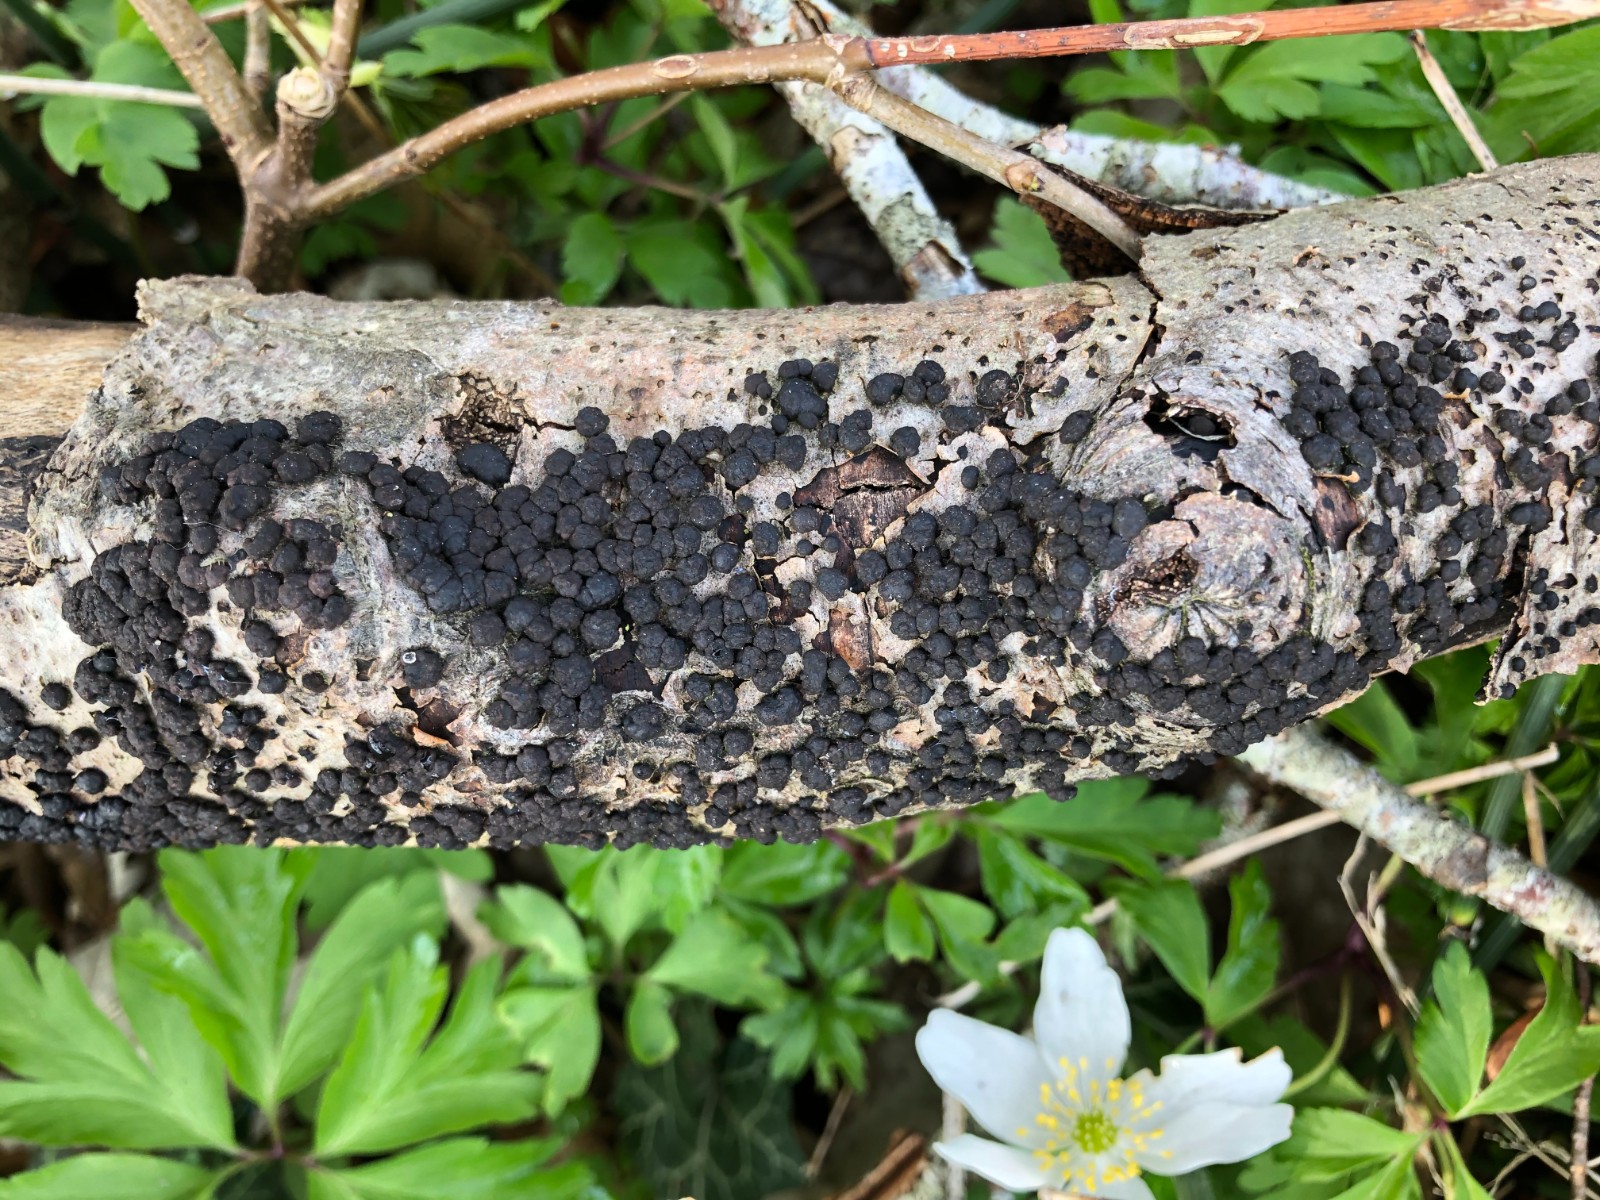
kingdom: Fungi
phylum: Ascomycota
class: Sordariomycetes
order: Xylariales
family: Hypoxylaceae
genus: Jackrogersella
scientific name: Jackrogersella cohaerens
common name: sammenflydende kulbær
